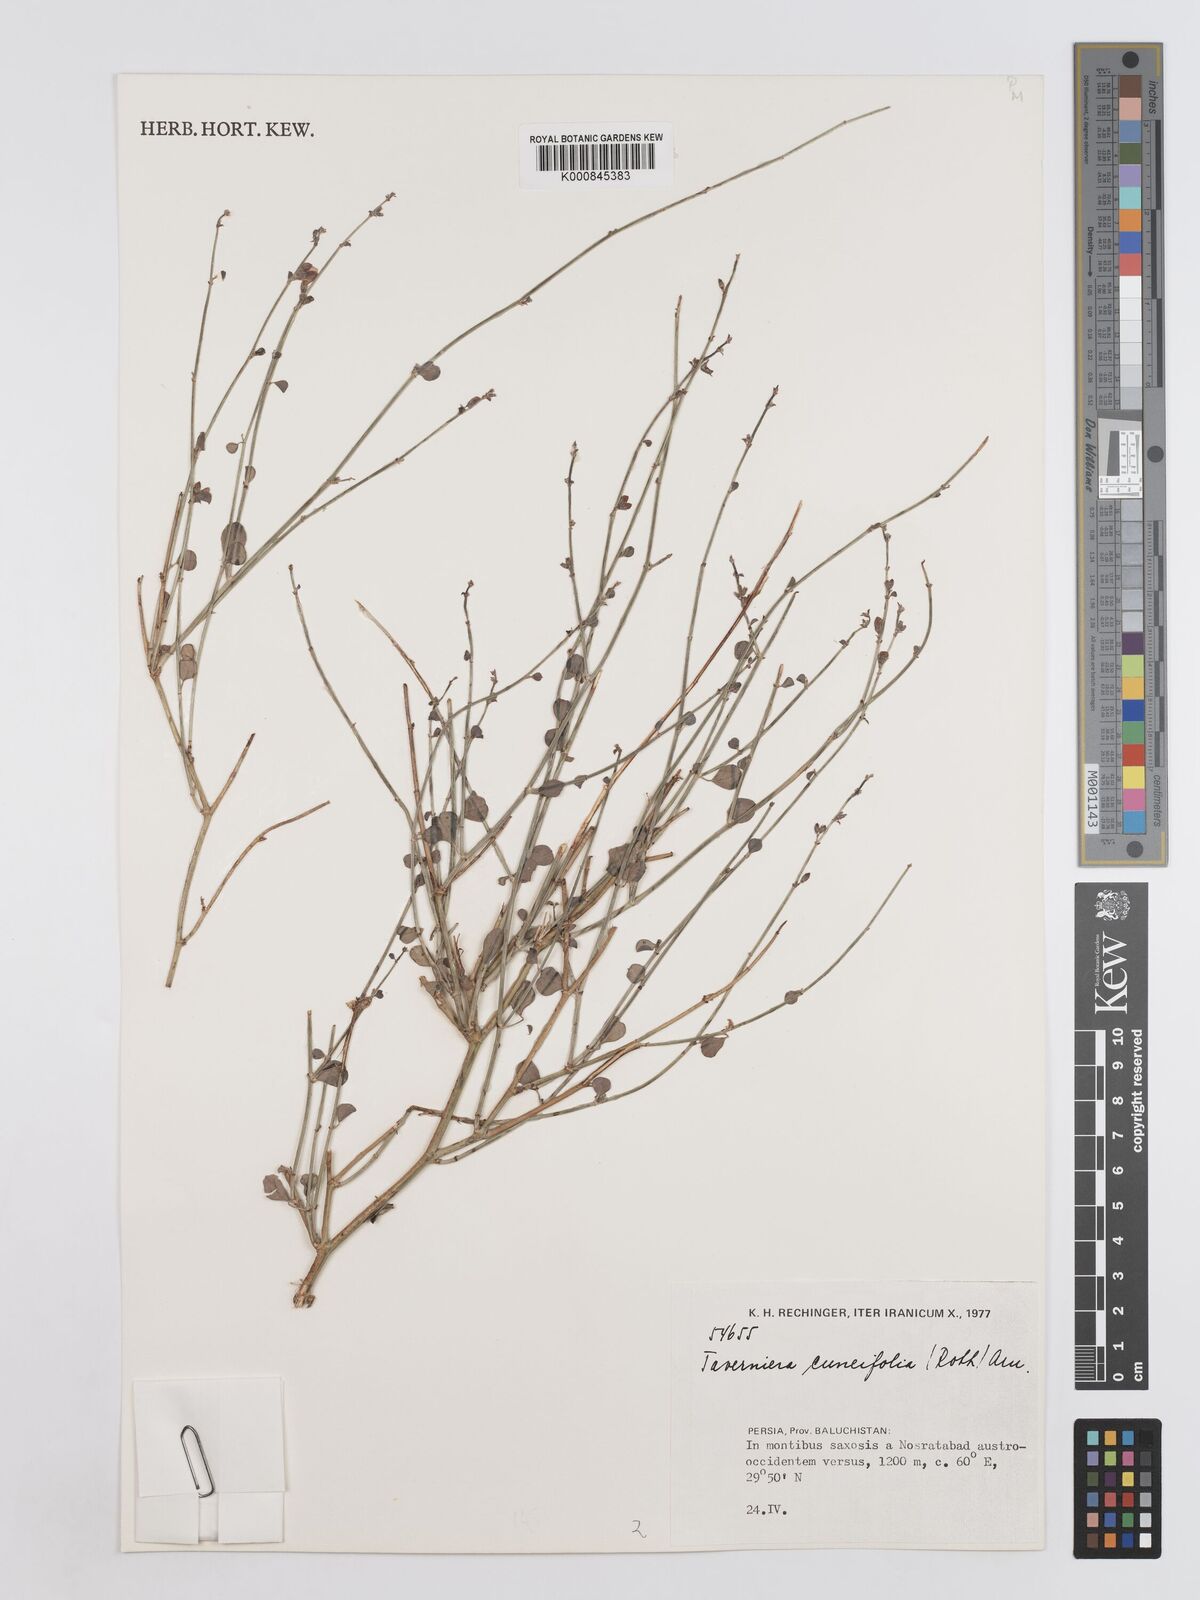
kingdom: Plantae
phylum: Tracheophyta
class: Magnoliopsida
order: Fabales
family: Fabaceae
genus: Taverniera
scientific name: Taverniera cuneifolia
